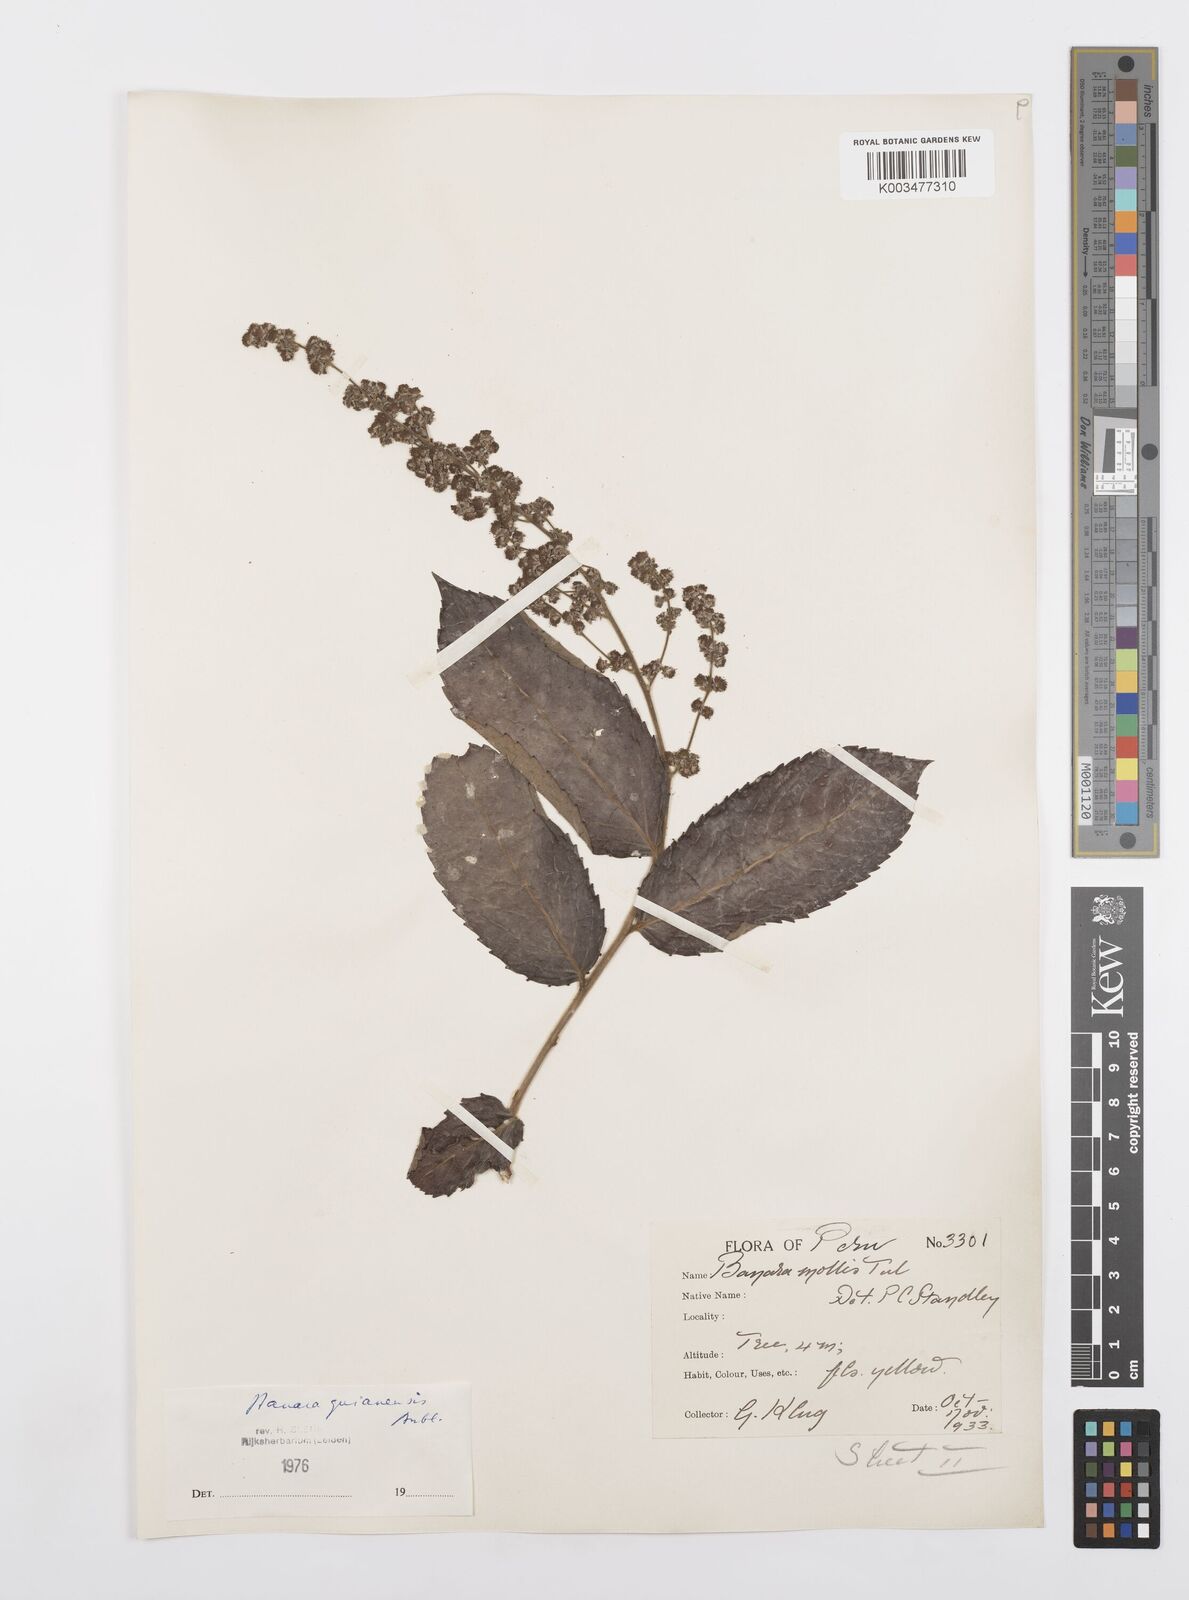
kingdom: Plantae
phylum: Tracheophyta
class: Magnoliopsida
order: Malpighiales
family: Salicaceae
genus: Banara
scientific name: Banara guianensis
